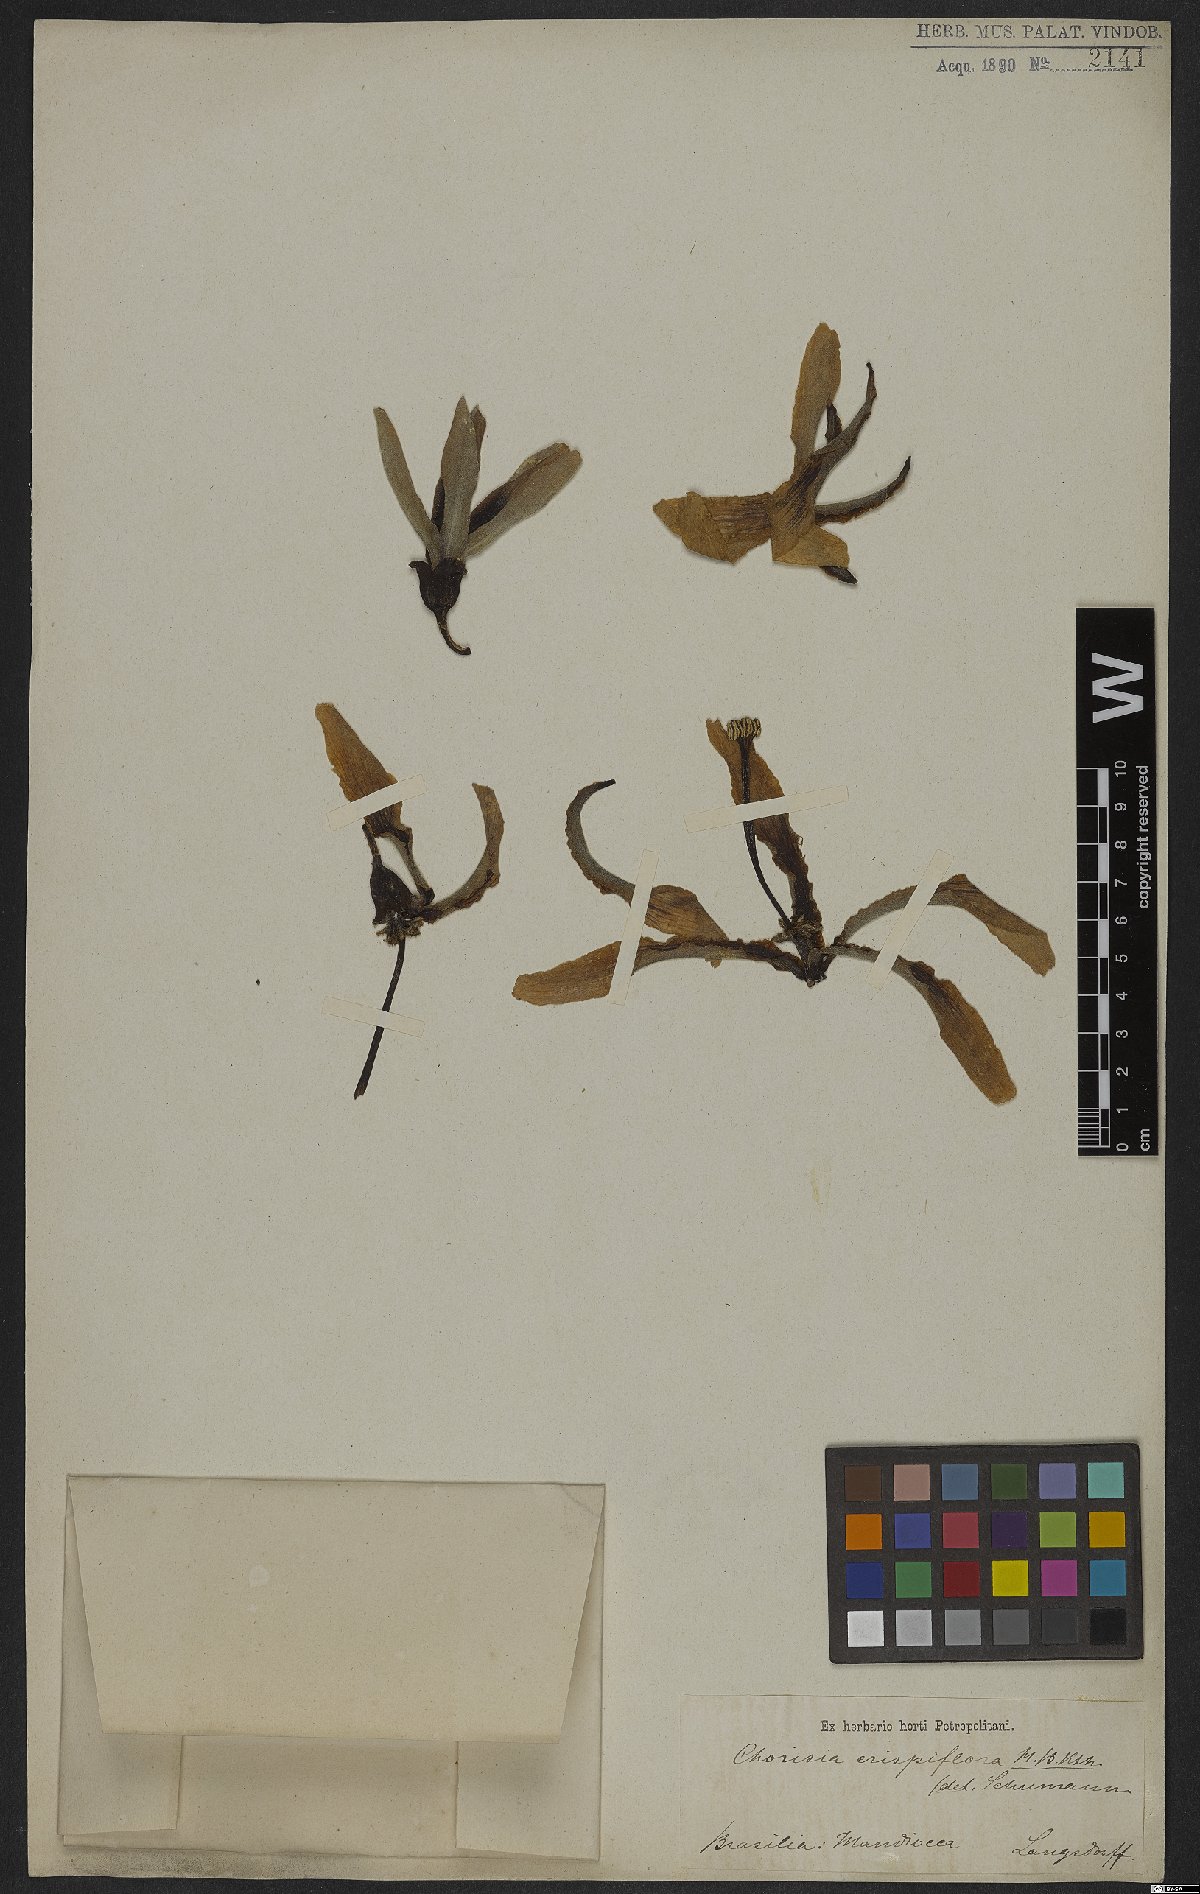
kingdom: Plantae
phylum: Tracheophyta
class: Magnoliopsida
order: Malvales
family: Malvaceae
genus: Ceiba
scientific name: Ceiba crispiflora
